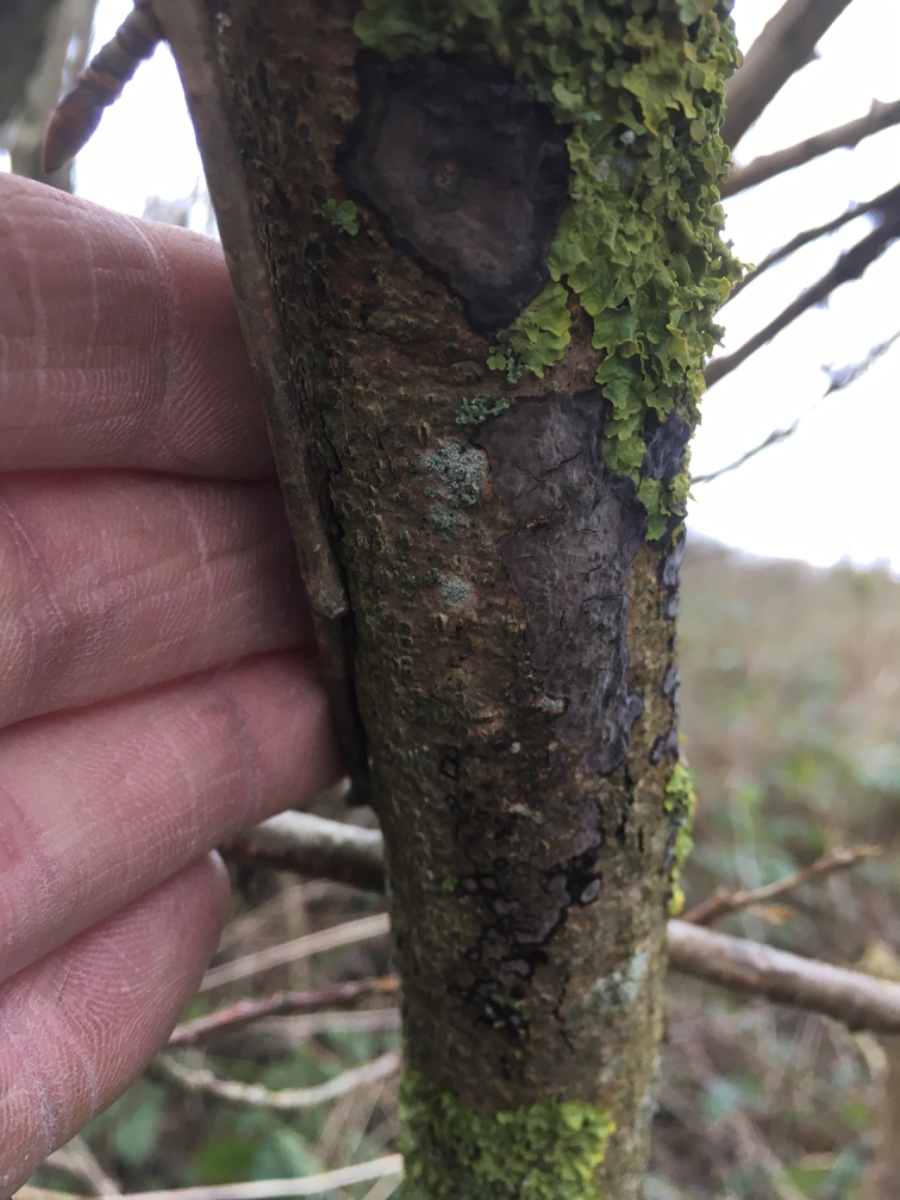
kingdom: Fungi
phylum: Basidiomycota
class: Agaricomycetes
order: Russulales
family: Peniophoraceae
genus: Peniophora
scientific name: Peniophora limitata
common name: mørkrandet voksskind
